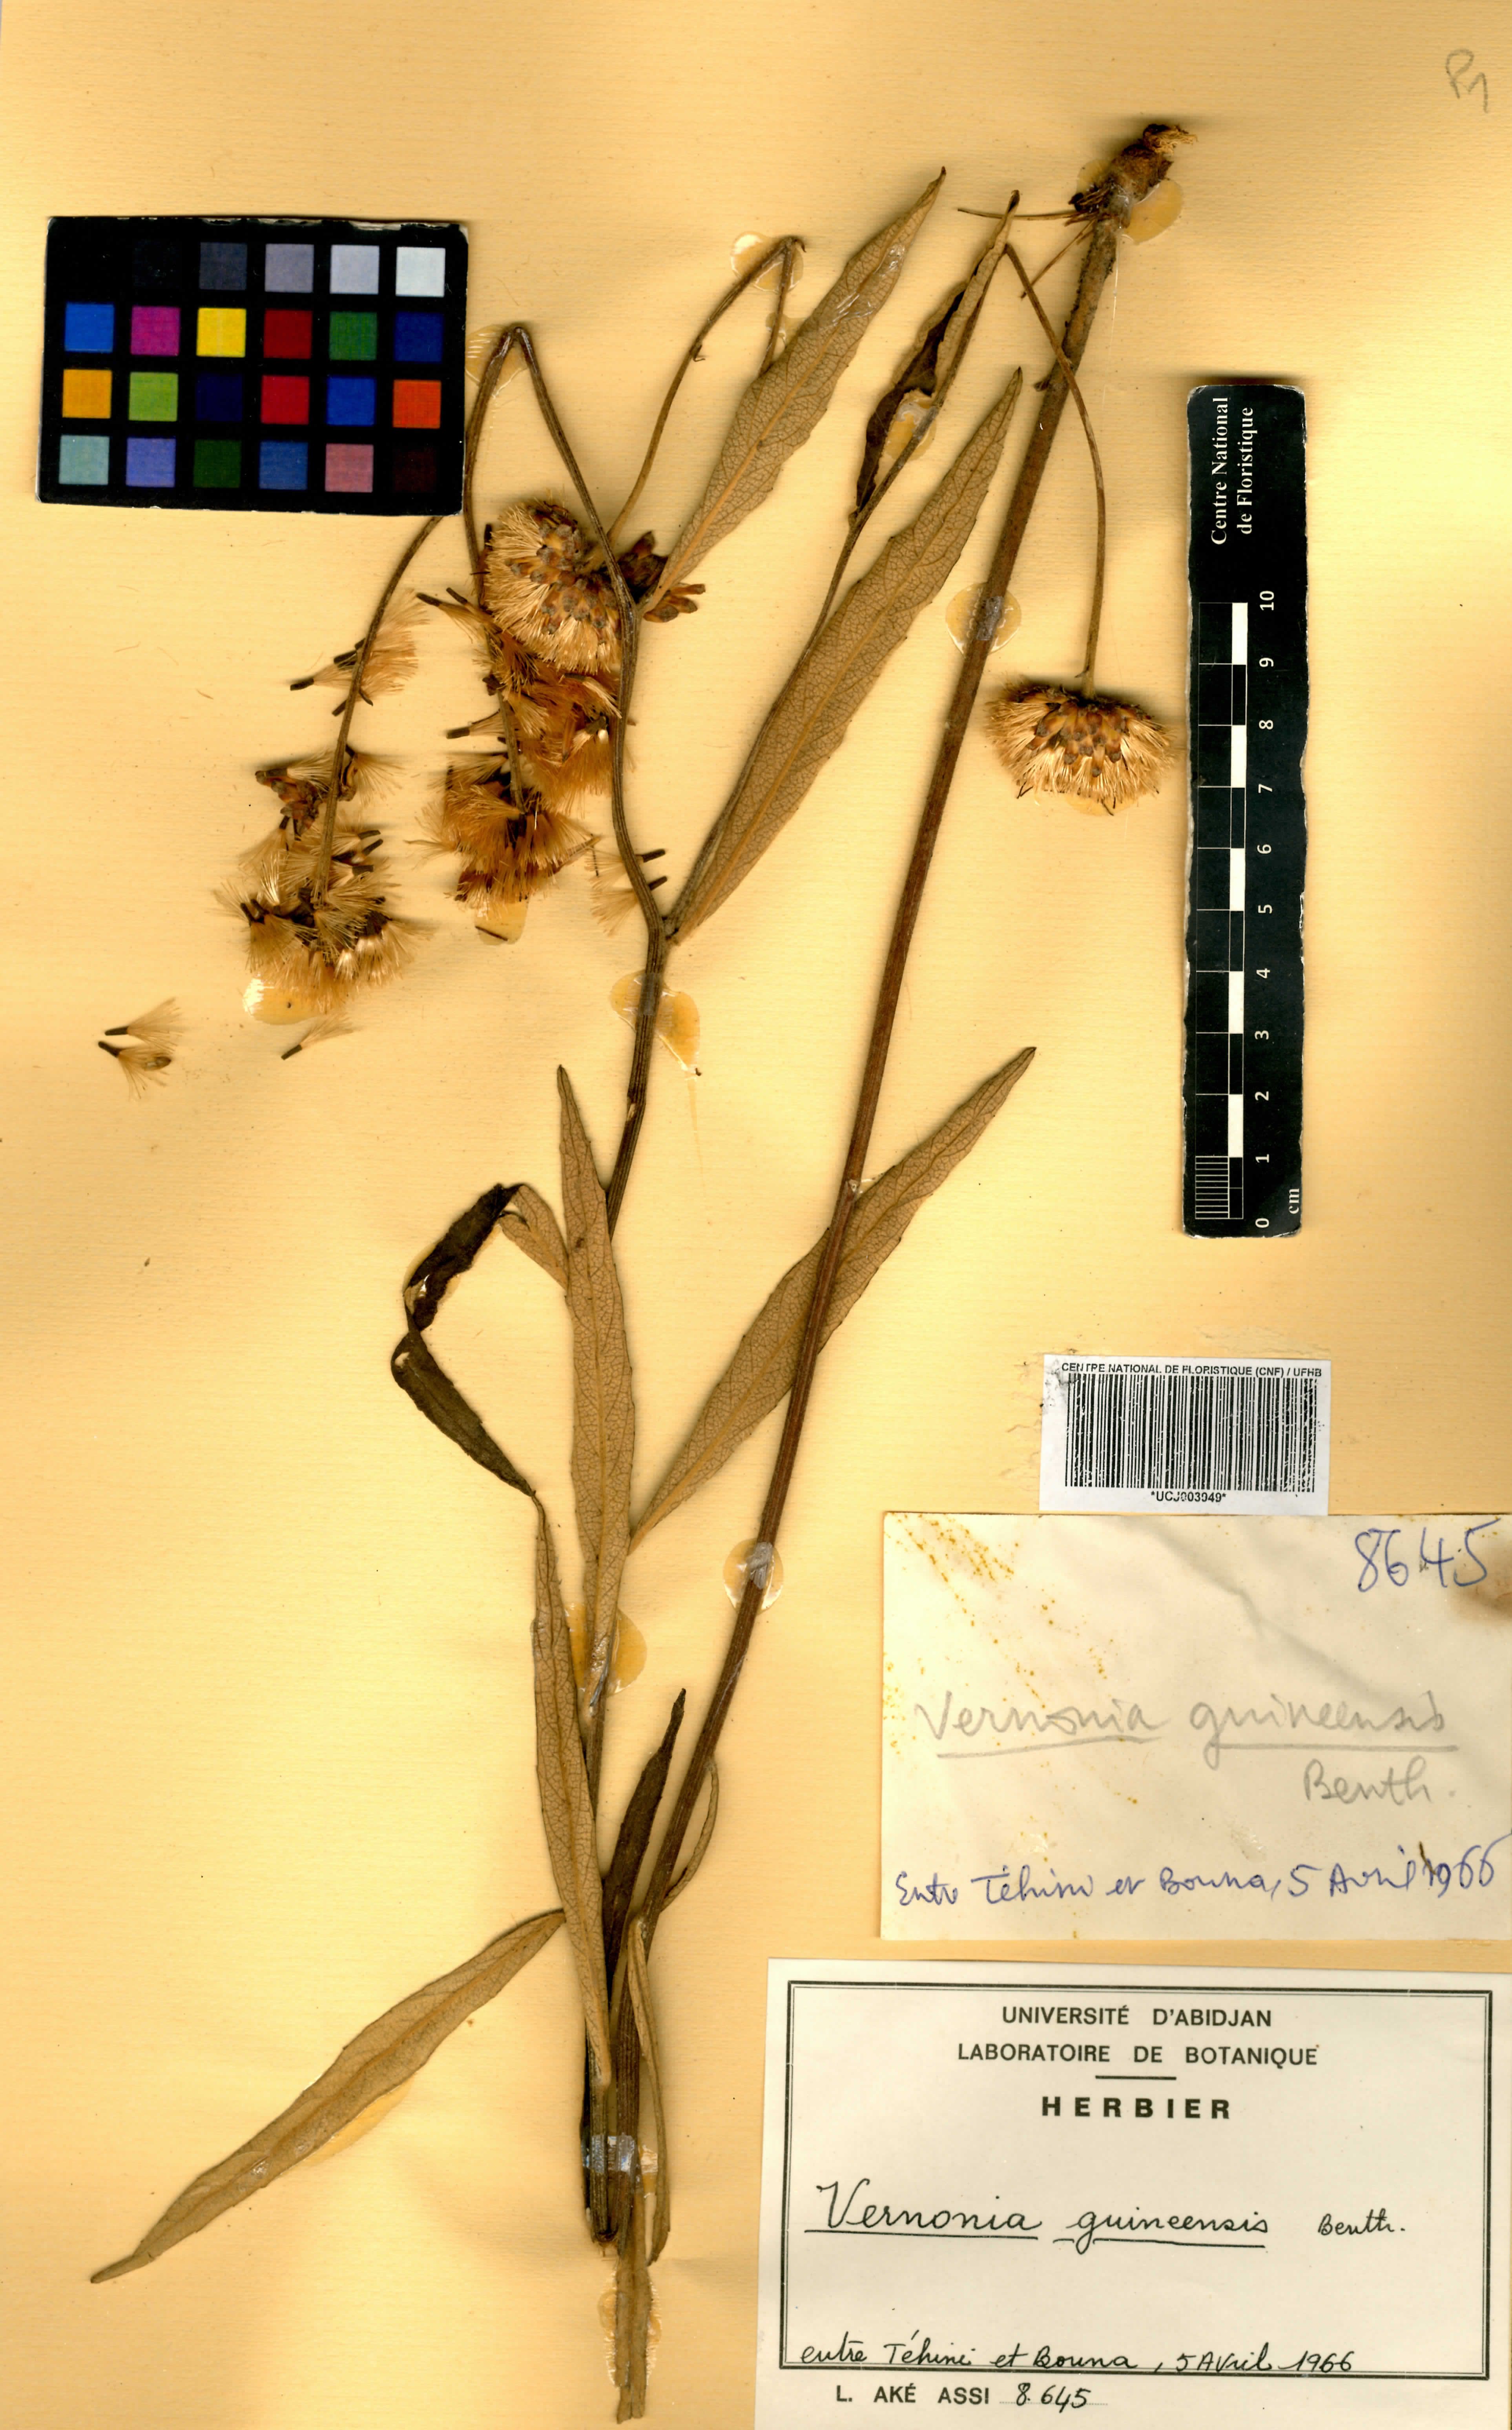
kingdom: Plantae
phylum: Tracheophyta
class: Magnoliopsida
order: Asterales
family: Asteraceae
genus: Baccharoides
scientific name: Baccharoides guineensis
